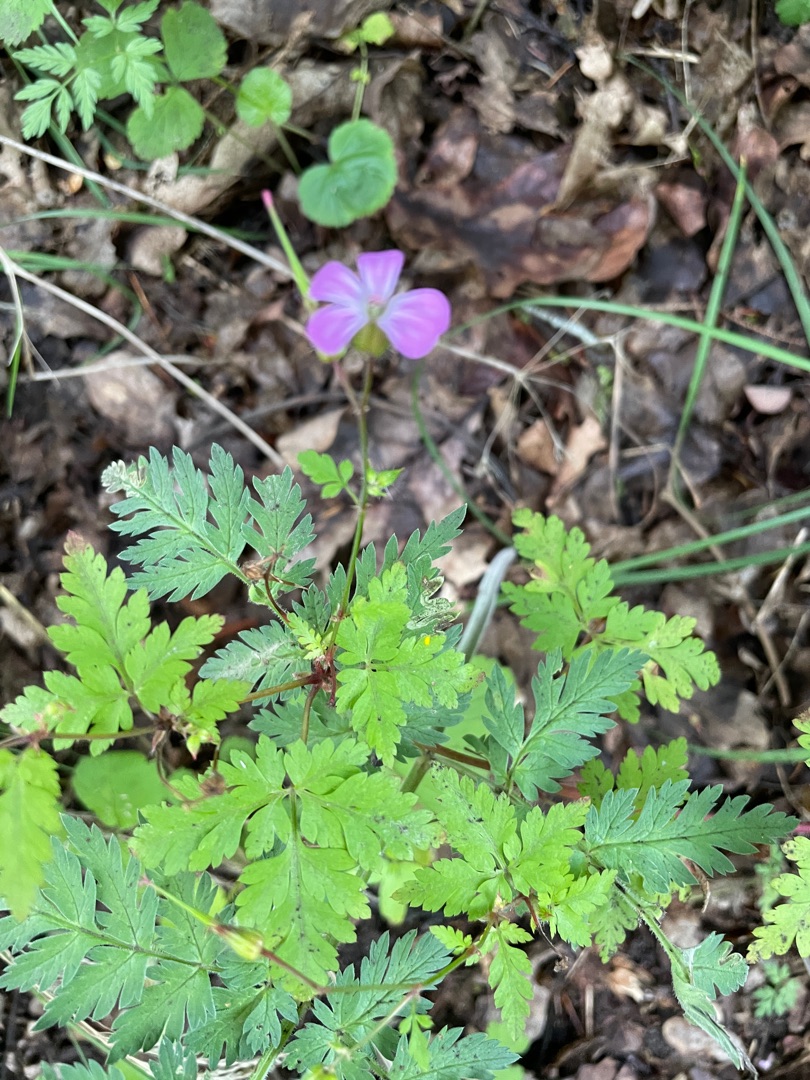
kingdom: Plantae
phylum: Tracheophyta
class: Magnoliopsida
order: Geraniales
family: Geraniaceae
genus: Geranium
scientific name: Geranium robertianum
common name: Stinkende storkenæb
